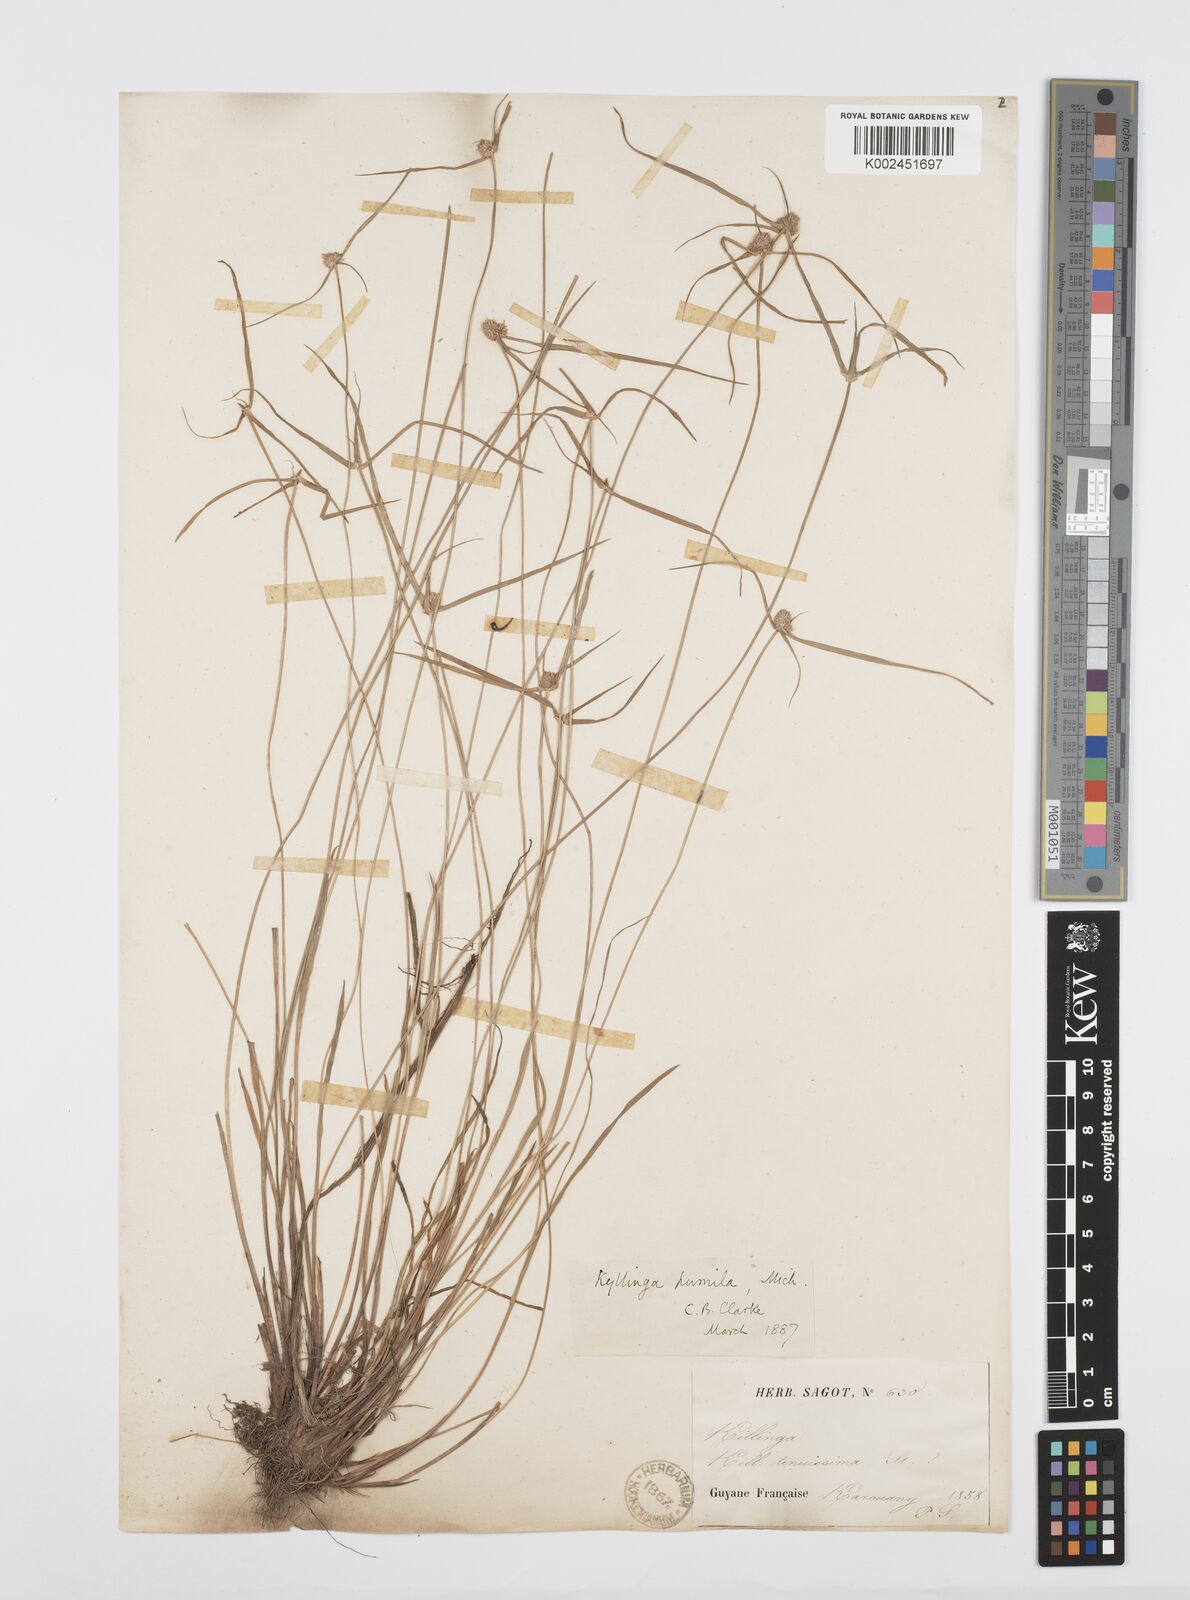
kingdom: Plantae
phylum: Tracheophyta
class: Liliopsida
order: Poales
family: Cyperaceae
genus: Cyperus
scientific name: Cyperus
